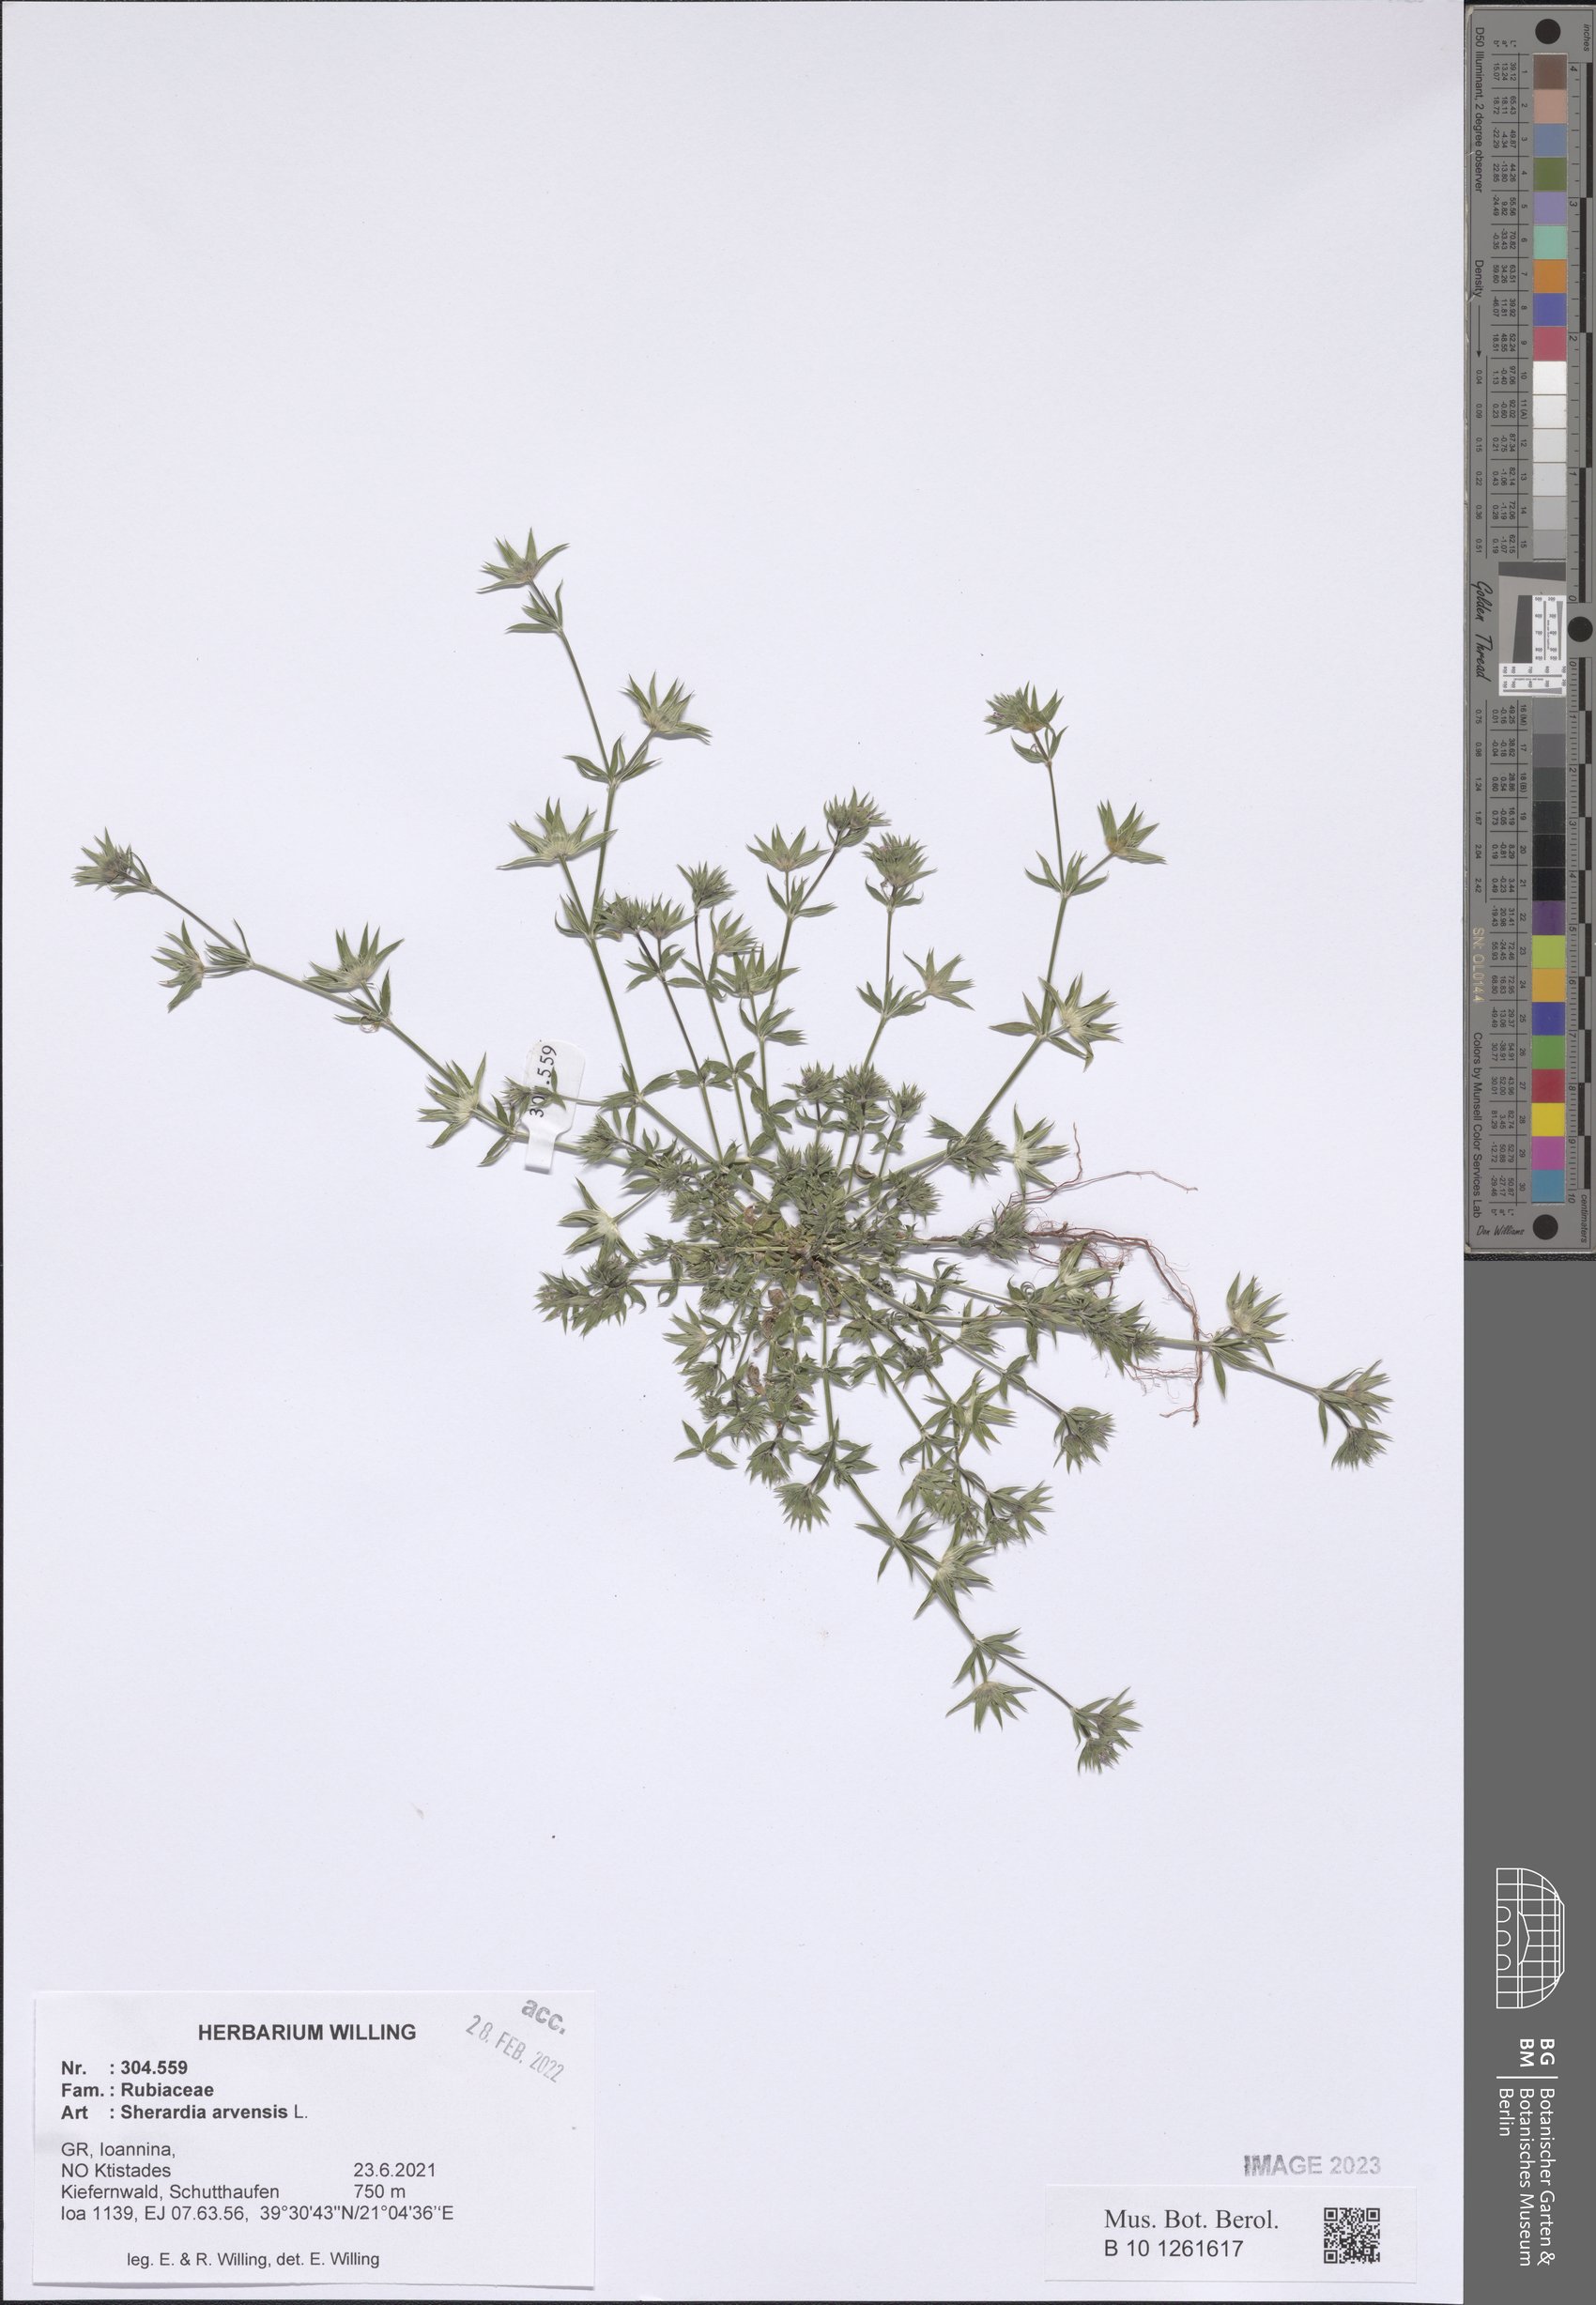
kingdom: Plantae
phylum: Tracheophyta
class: Magnoliopsida
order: Gentianales
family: Rubiaceae
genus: Sherardia
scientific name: Sherardia arvensis
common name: Field madder
